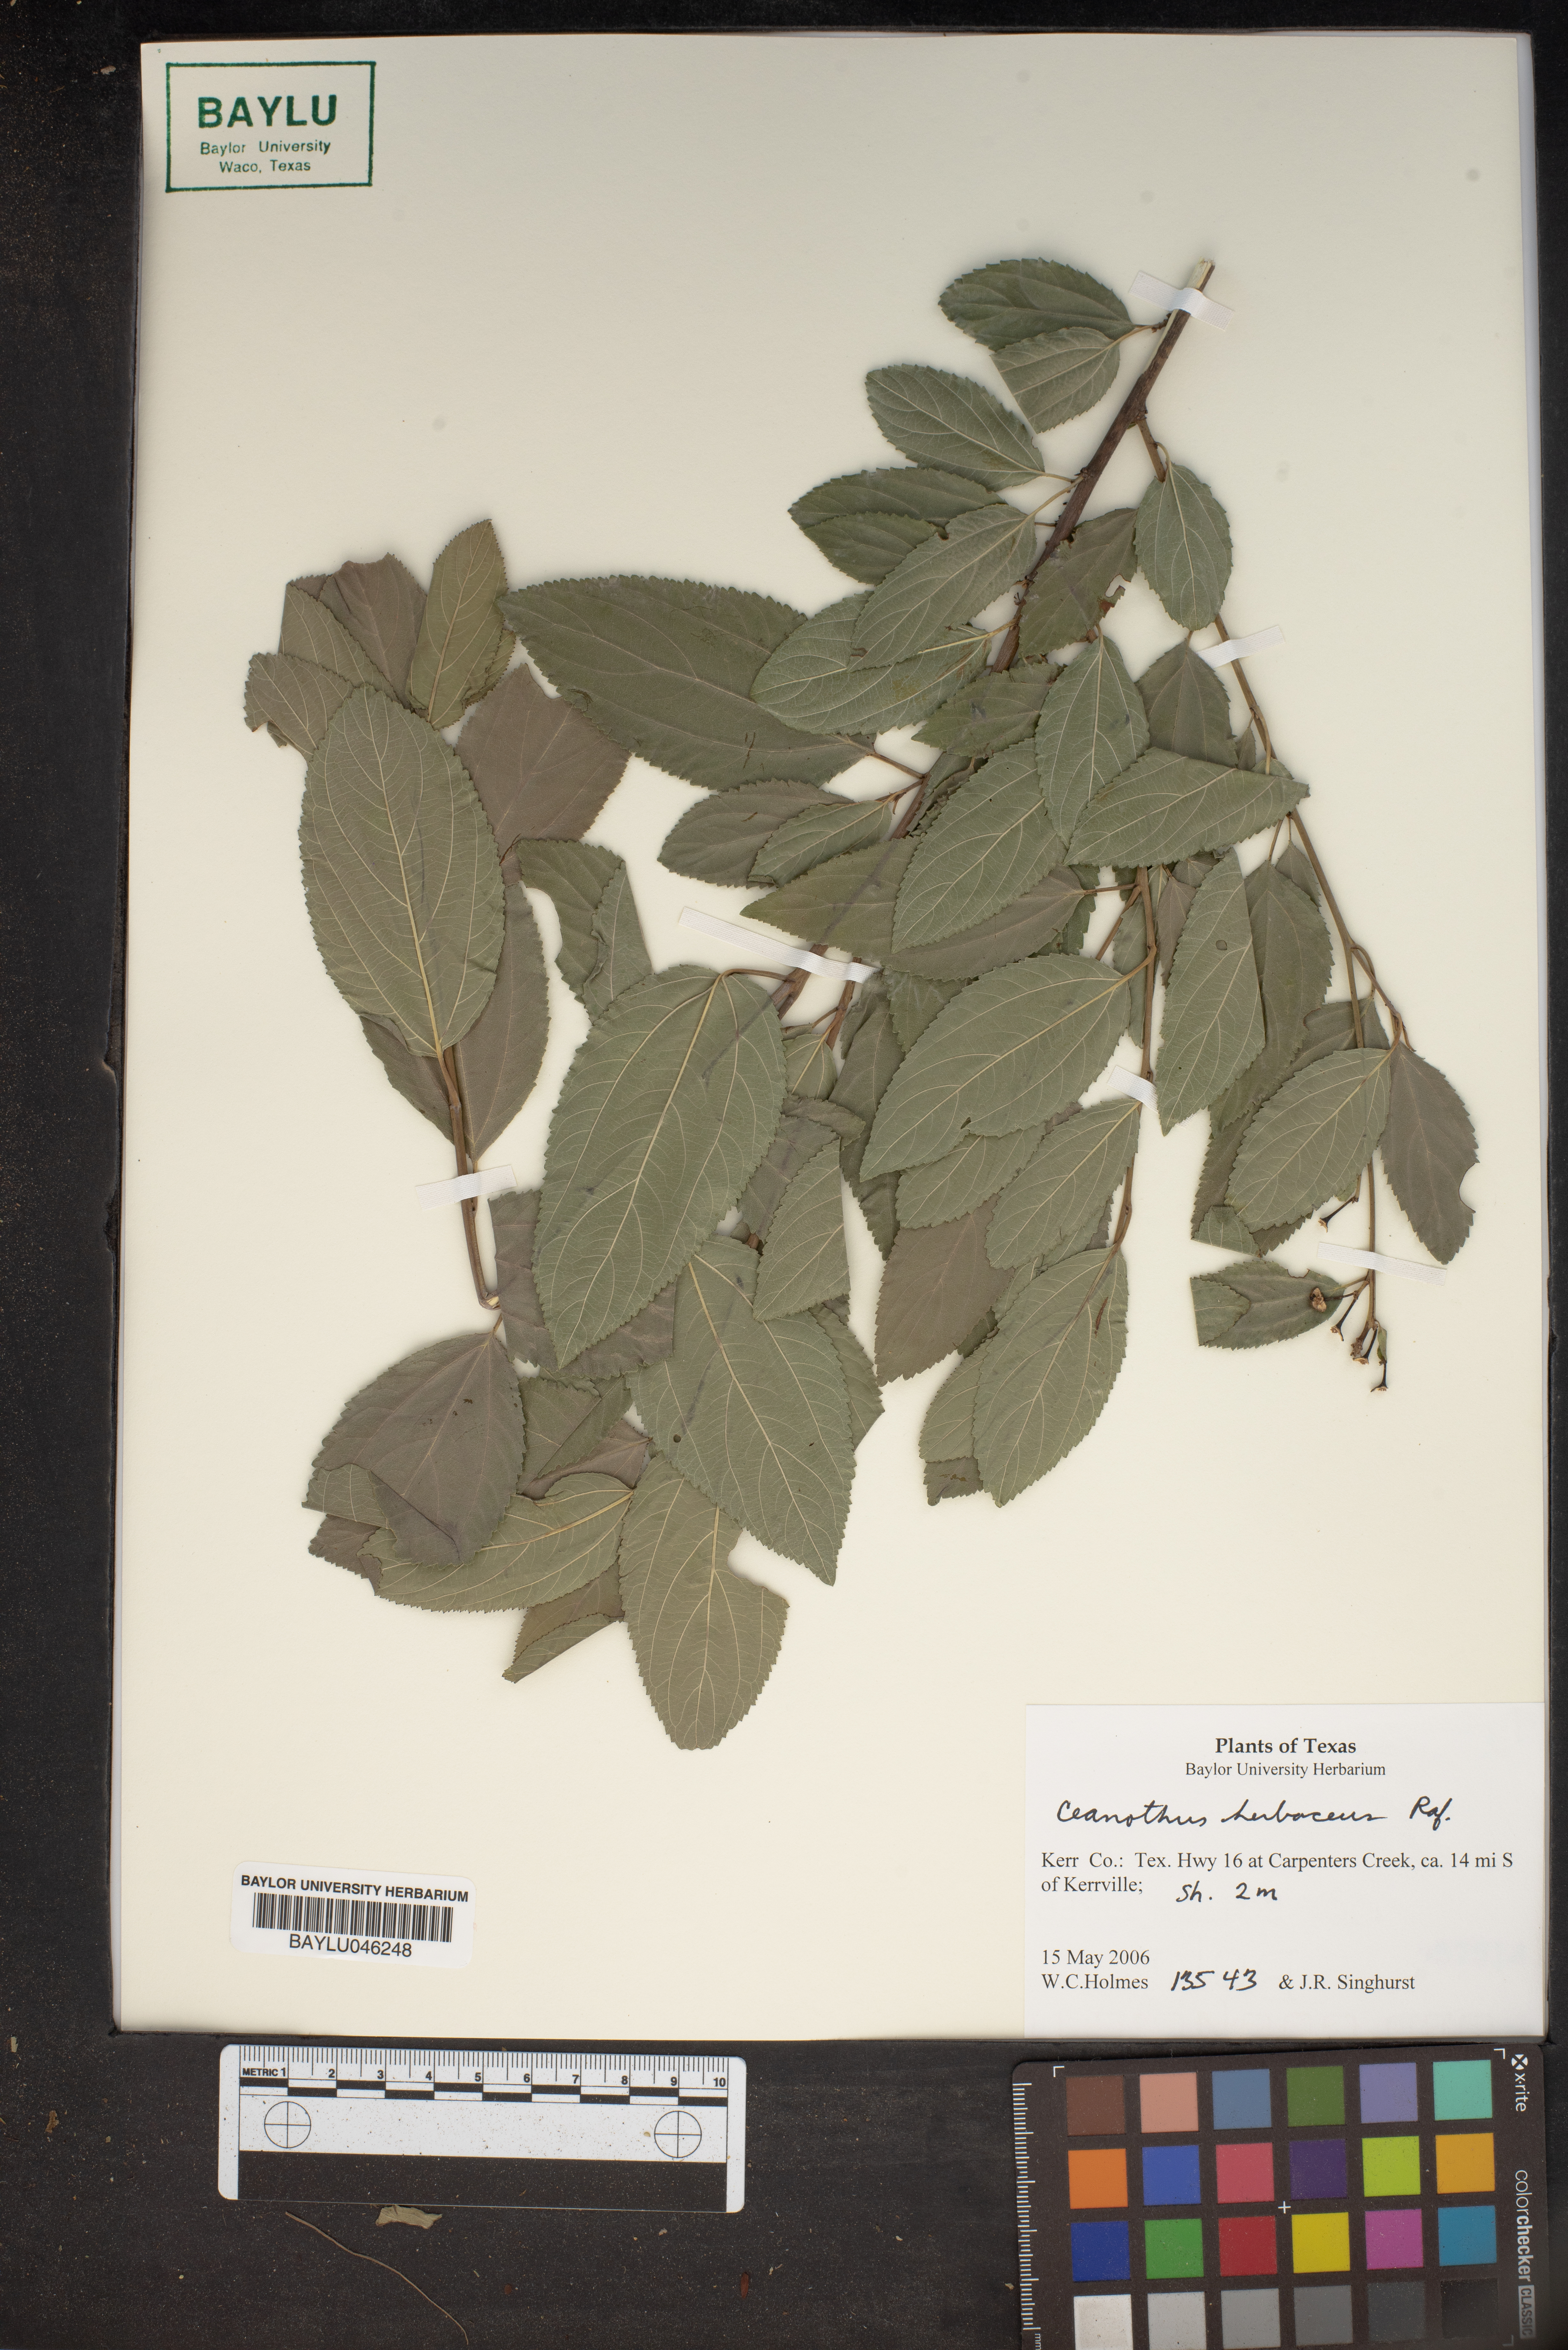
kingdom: Plantae
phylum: Tracheophyta
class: Magnoliopsida
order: Rosales
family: Rhamnaceae
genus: Ceanothus
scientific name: Ceanothus herbaceus
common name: Inland ceanothus
